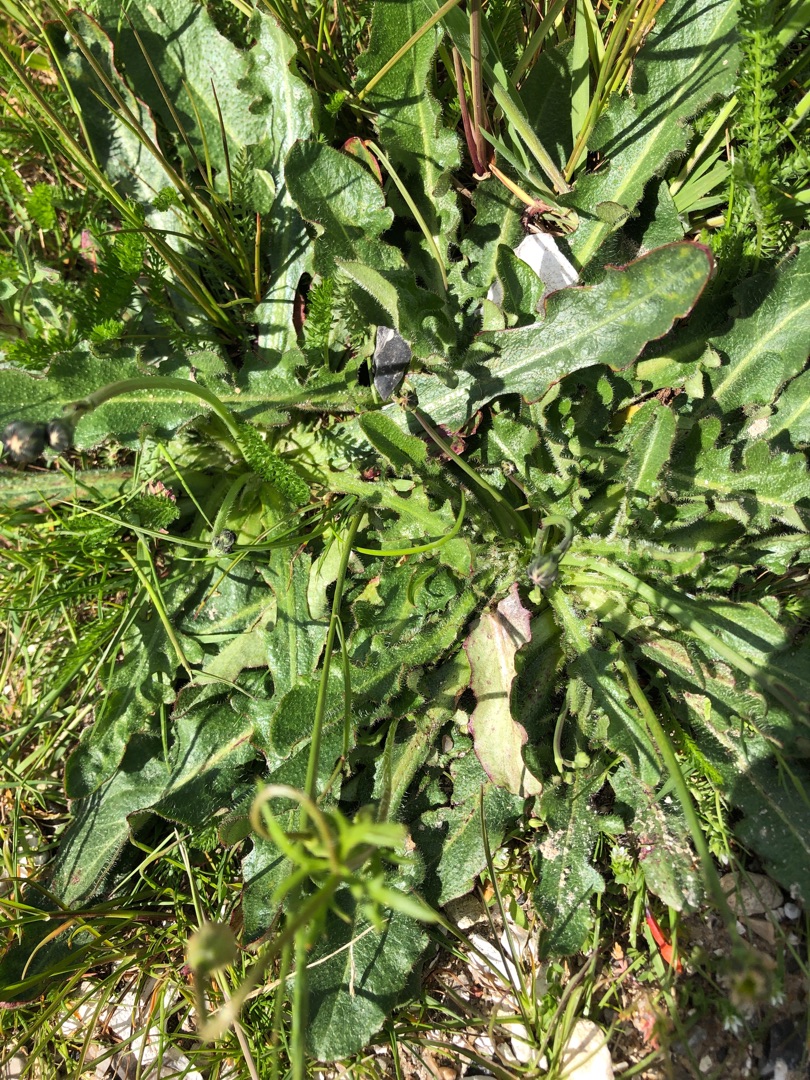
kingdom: Plantae
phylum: Tracheophyta
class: Magnoliopsida
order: Asterales
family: Asteraceae
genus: Hypochaeris
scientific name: Hypochaeris radicata
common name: Almindelig kongepen
